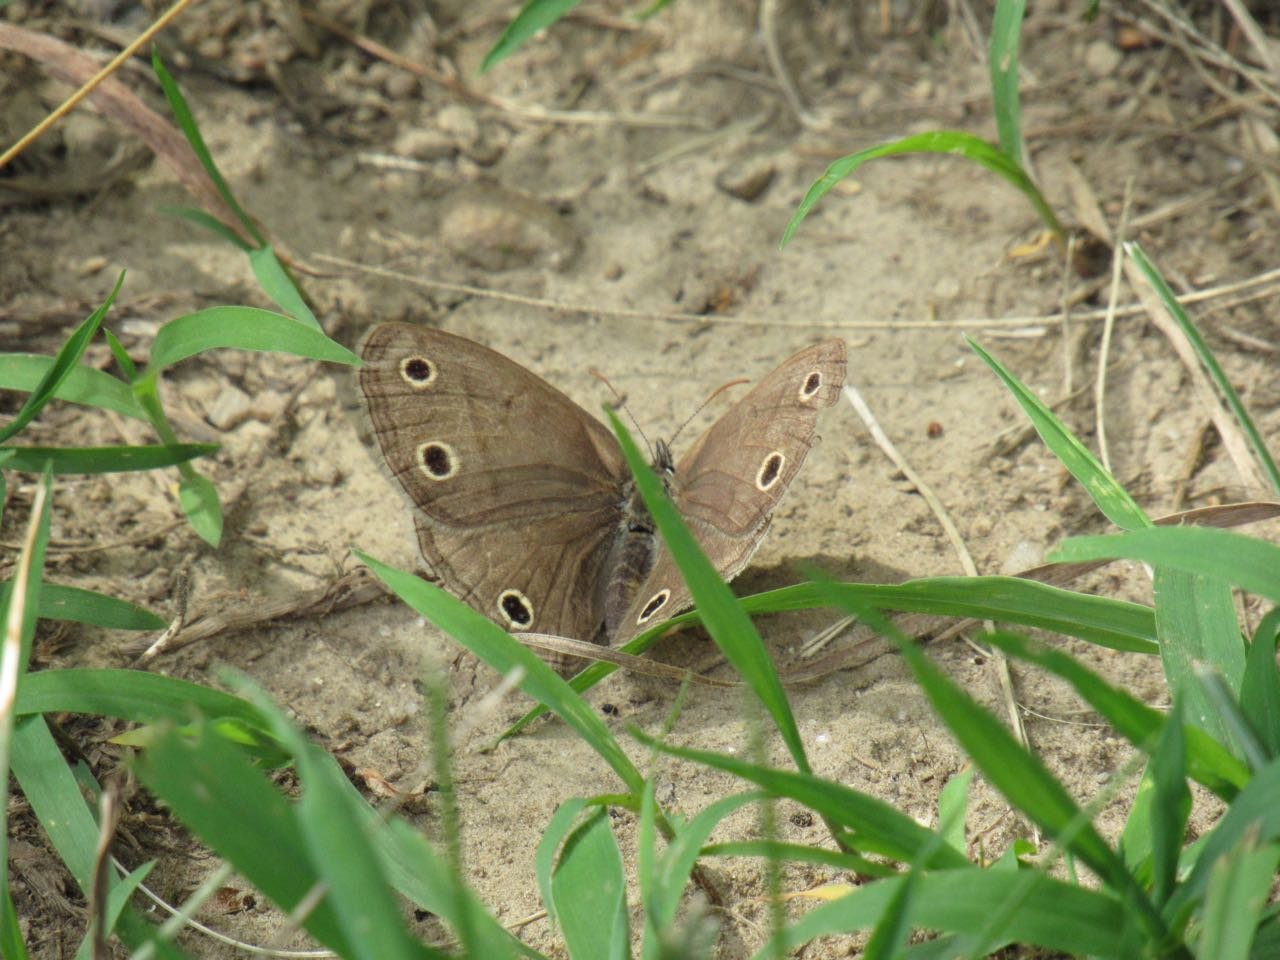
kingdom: Animalia
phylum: Arthropoda
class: Insecta
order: Lepidoptera
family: Nymphalidae
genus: Euptychia
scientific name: Euptychia cymela
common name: Little Wood Satyr
